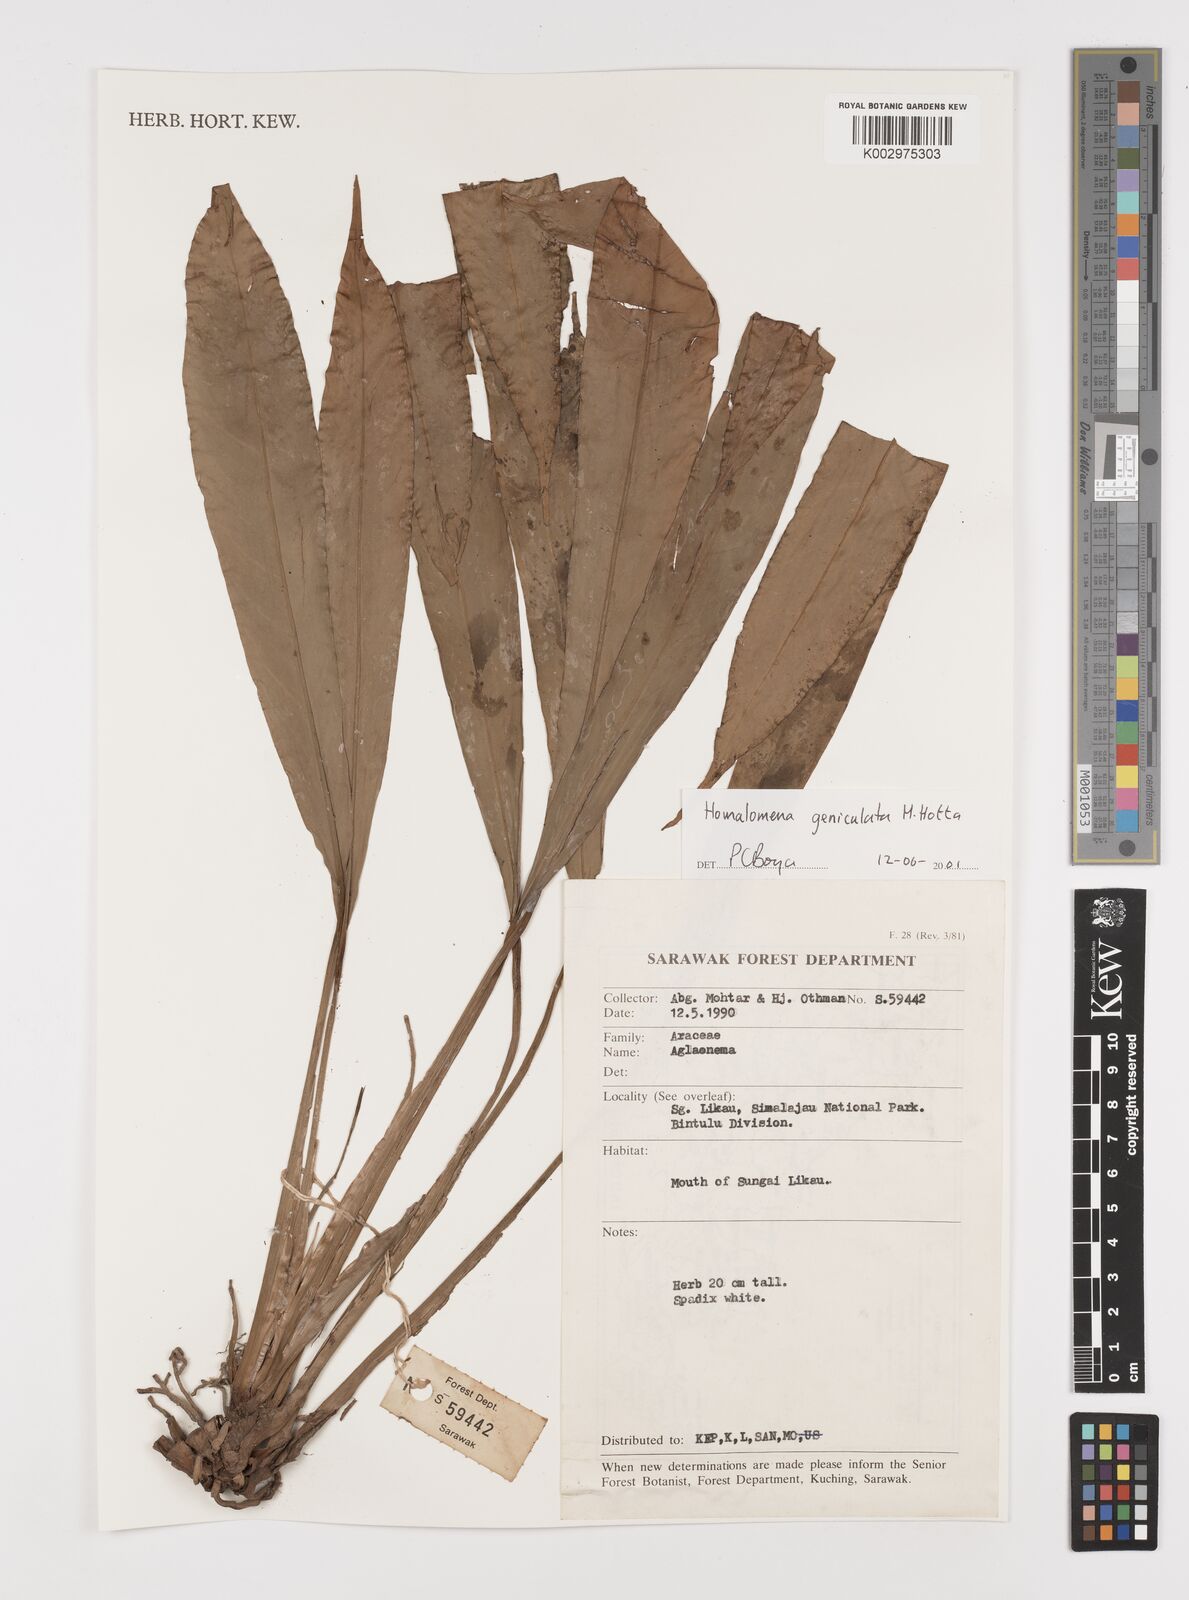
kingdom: Plantae
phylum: Tracheophyta
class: Liliopsida
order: Alismatales
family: Araceae
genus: Homalomena
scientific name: Homalomena punctulata
